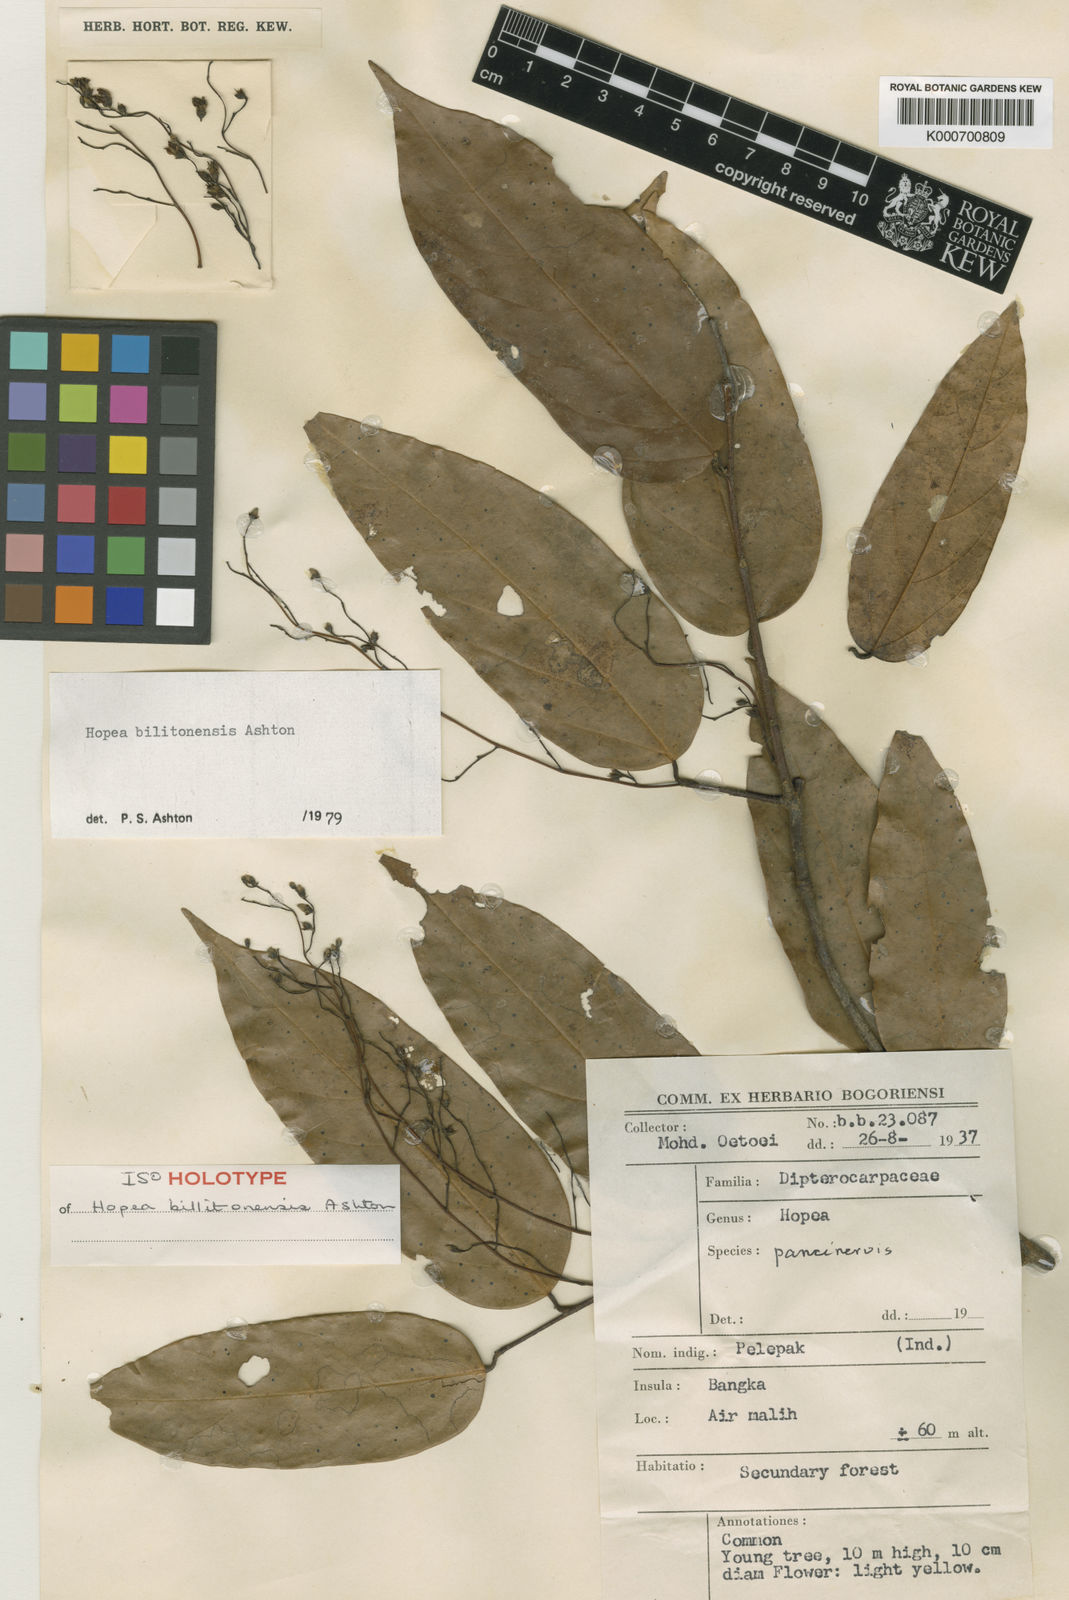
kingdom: Plantae
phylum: Tracheophyta
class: Magnoliopsida
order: Malvales
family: Dipterocarpaceae
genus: Hopea
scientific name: Hopea bilitonensis
